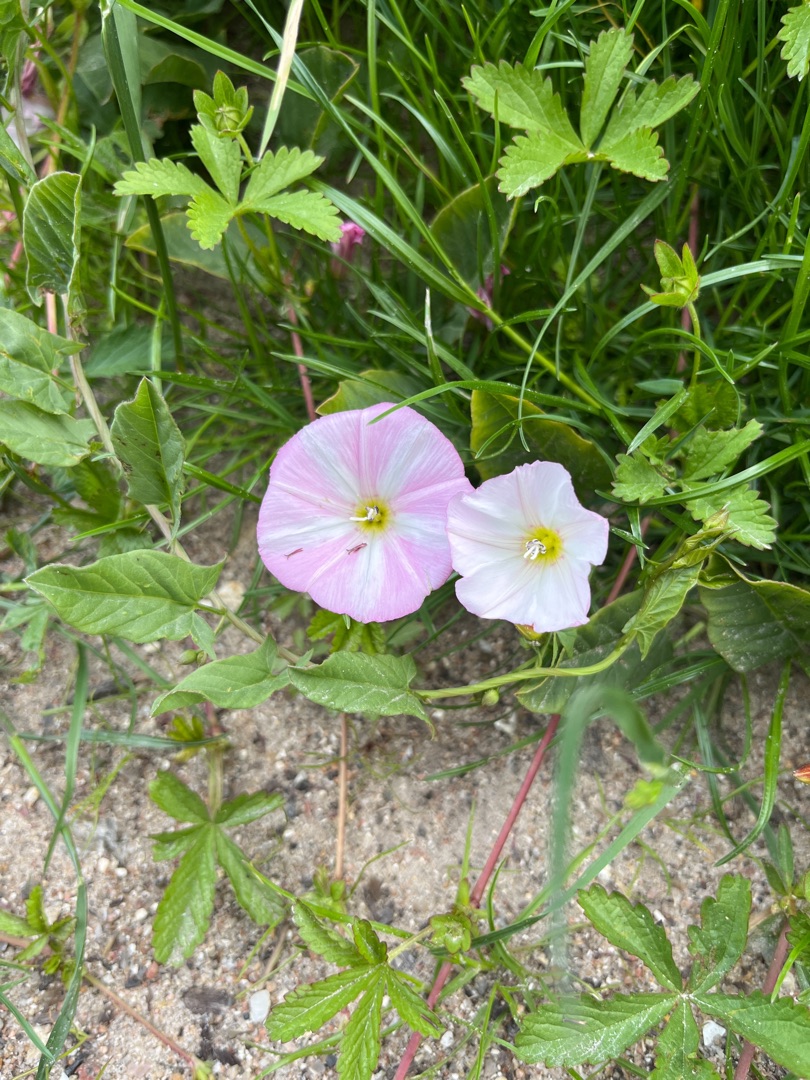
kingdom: Plantae
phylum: Tracheophyta
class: Magnoliopsida
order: Solanales
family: Convolvulaceae
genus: Convolvulus
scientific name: Convolvulus arvensis
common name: Ager-snerle
